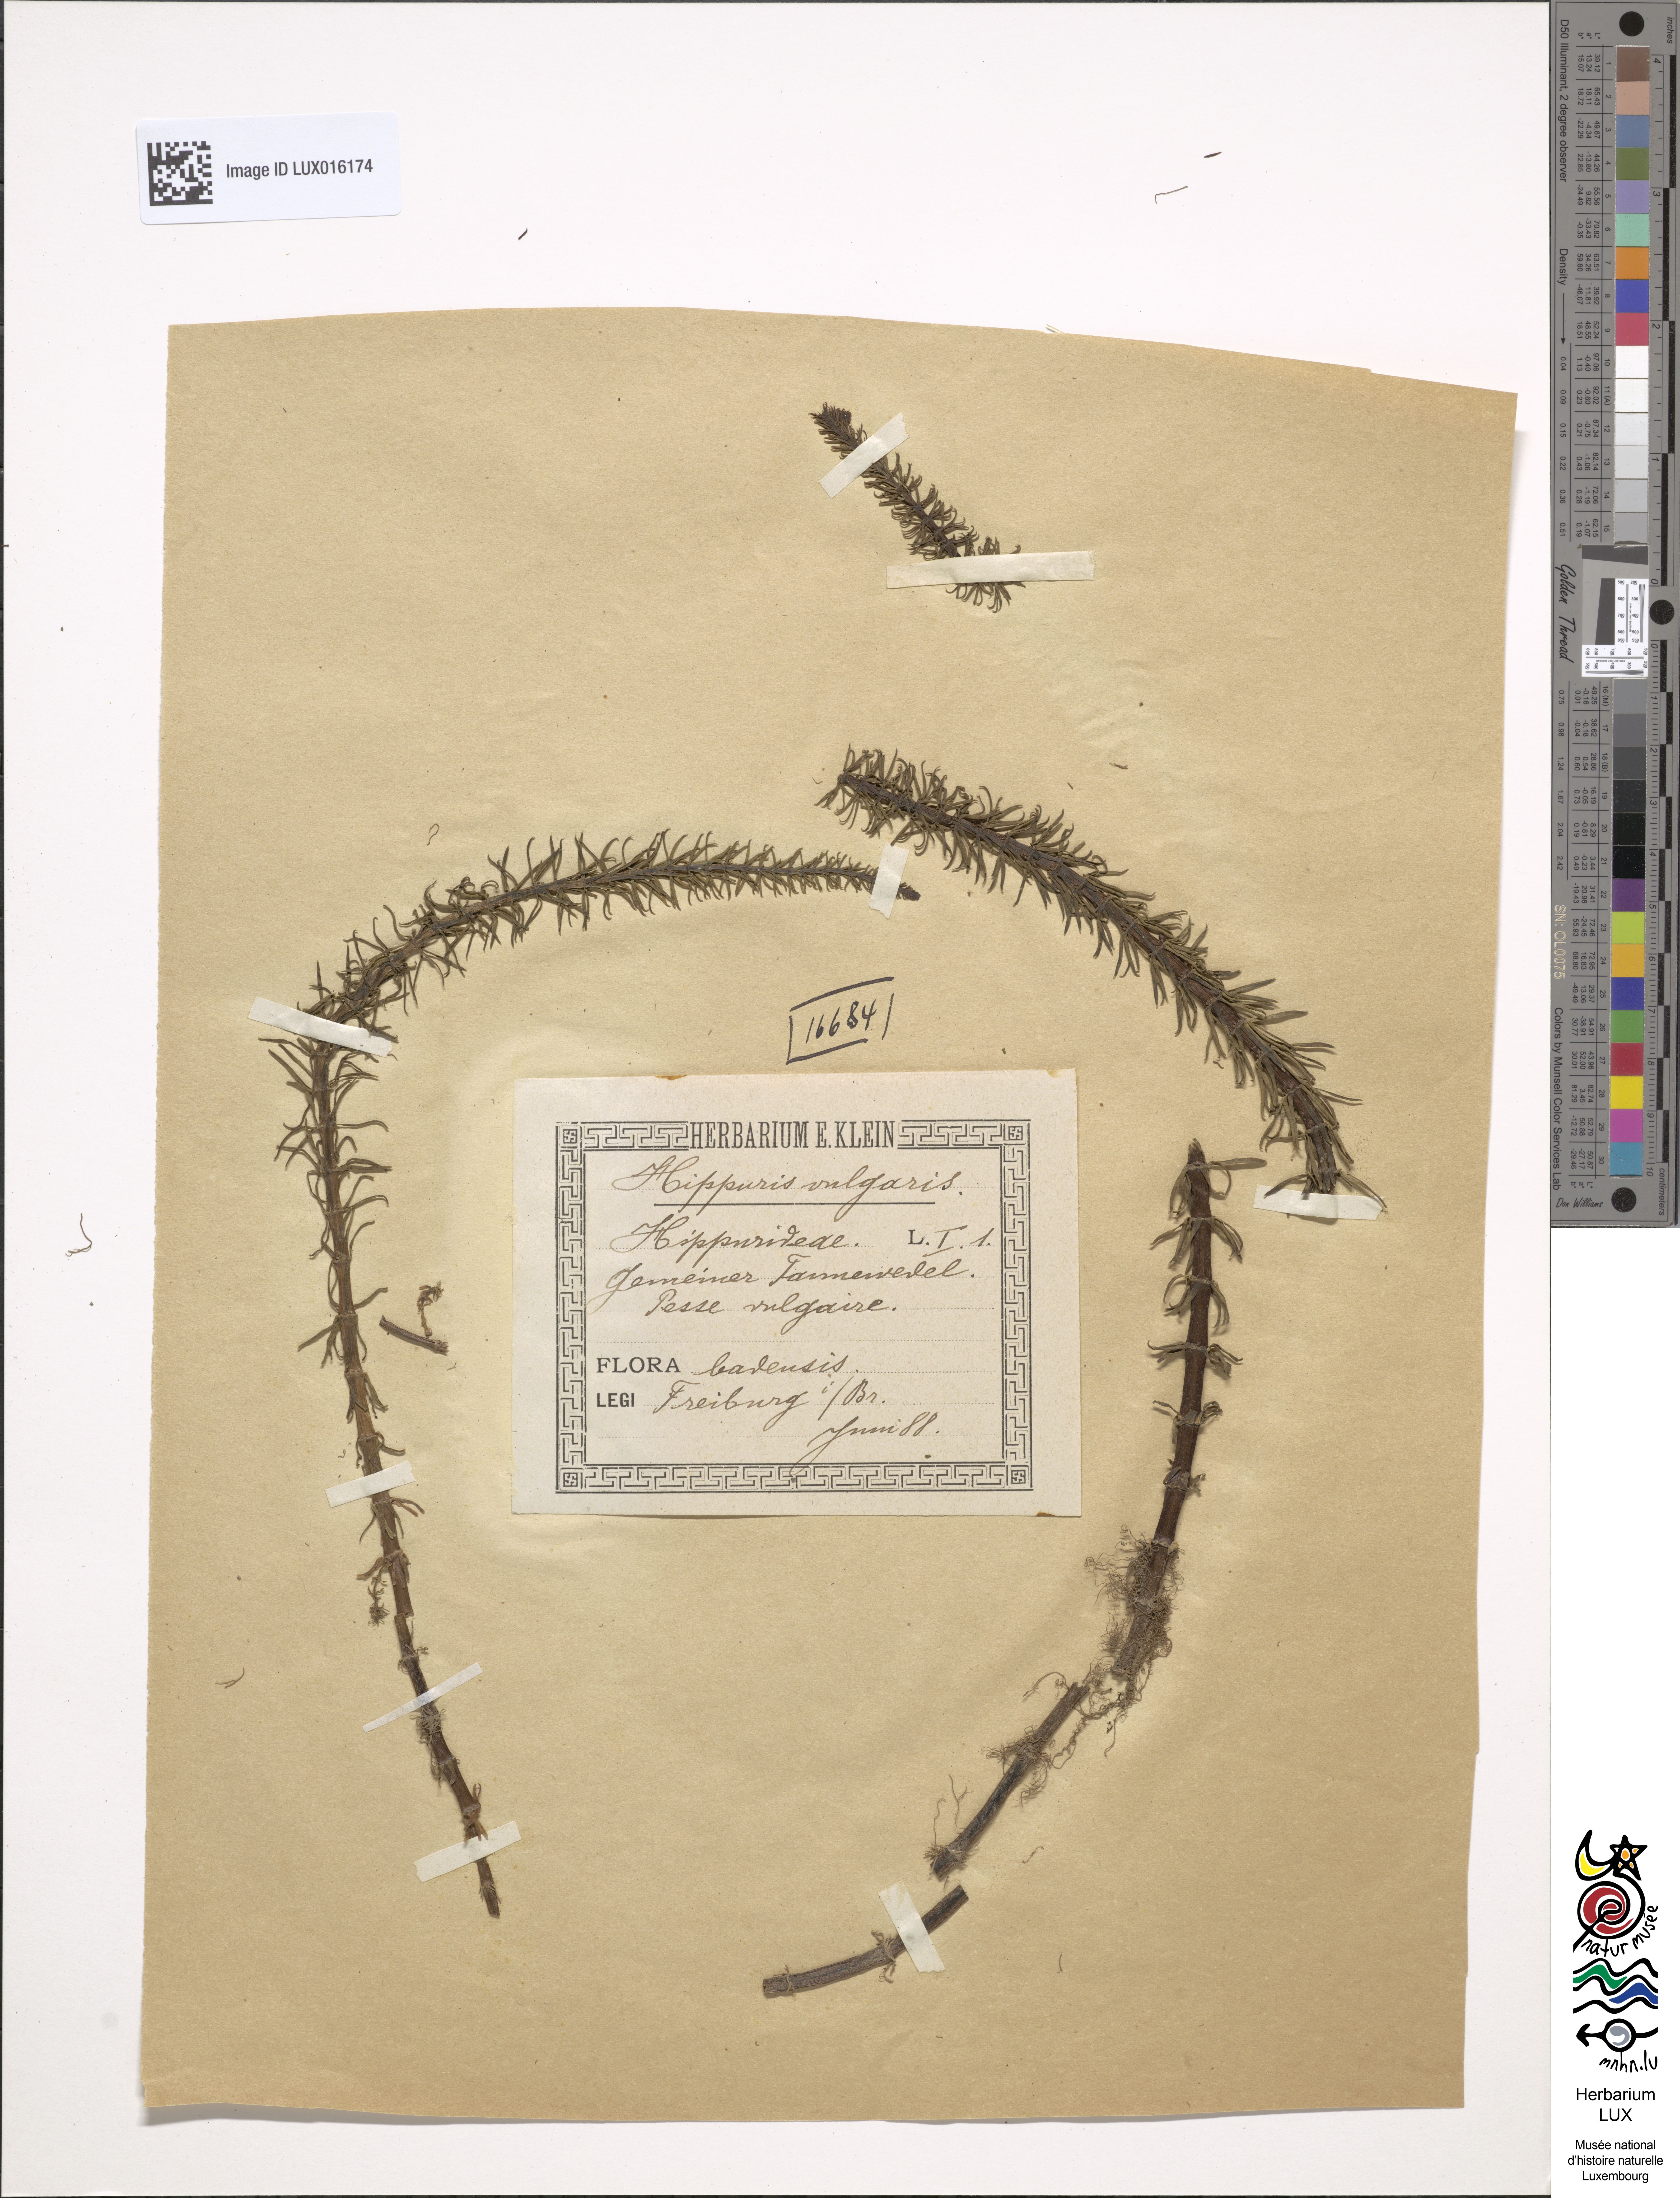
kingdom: Plantae
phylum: Tracheophyta
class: Magnoliopsida
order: Lamiales
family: Plantaginaceae
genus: Hippuris
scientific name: Hippuris vulgaris
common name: Mare's-tail
